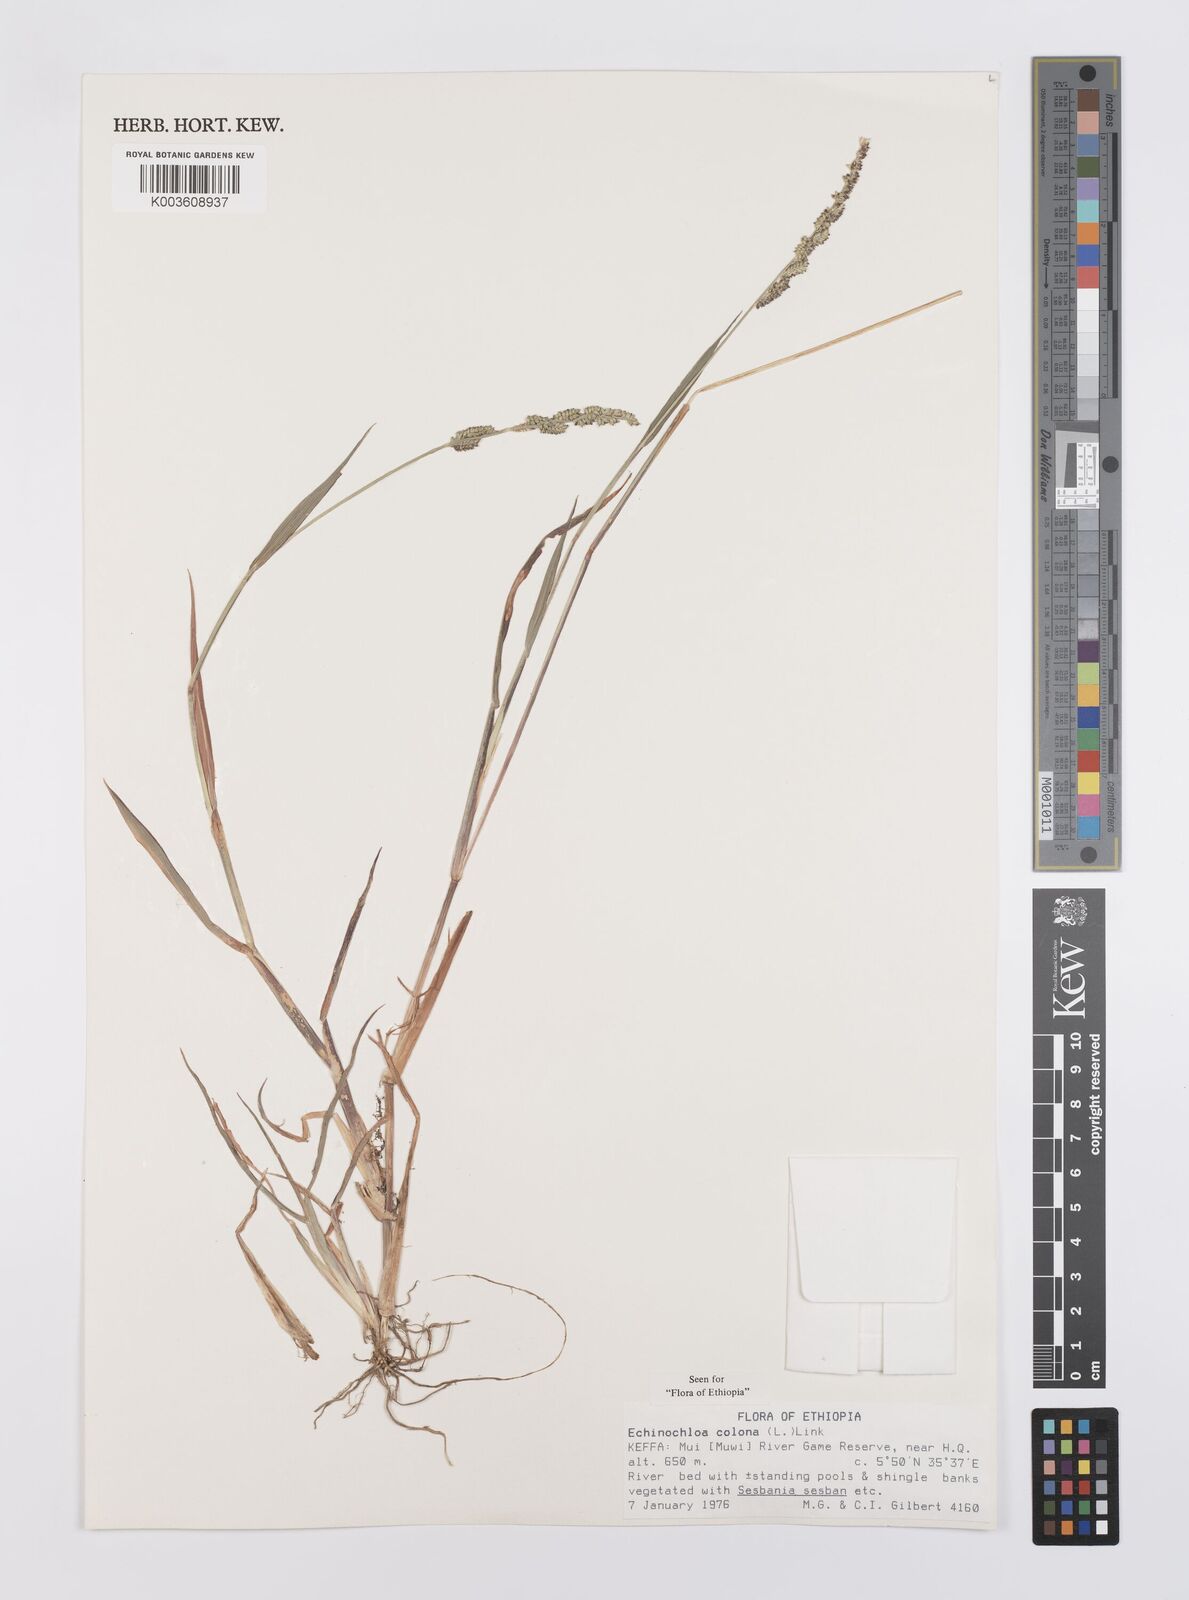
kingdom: Plantae
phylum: Tracheophyta
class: Liliopsida
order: Poales
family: Poaceae
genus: Echinochloa
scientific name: Echinochloa colonum
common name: Jungle rice
